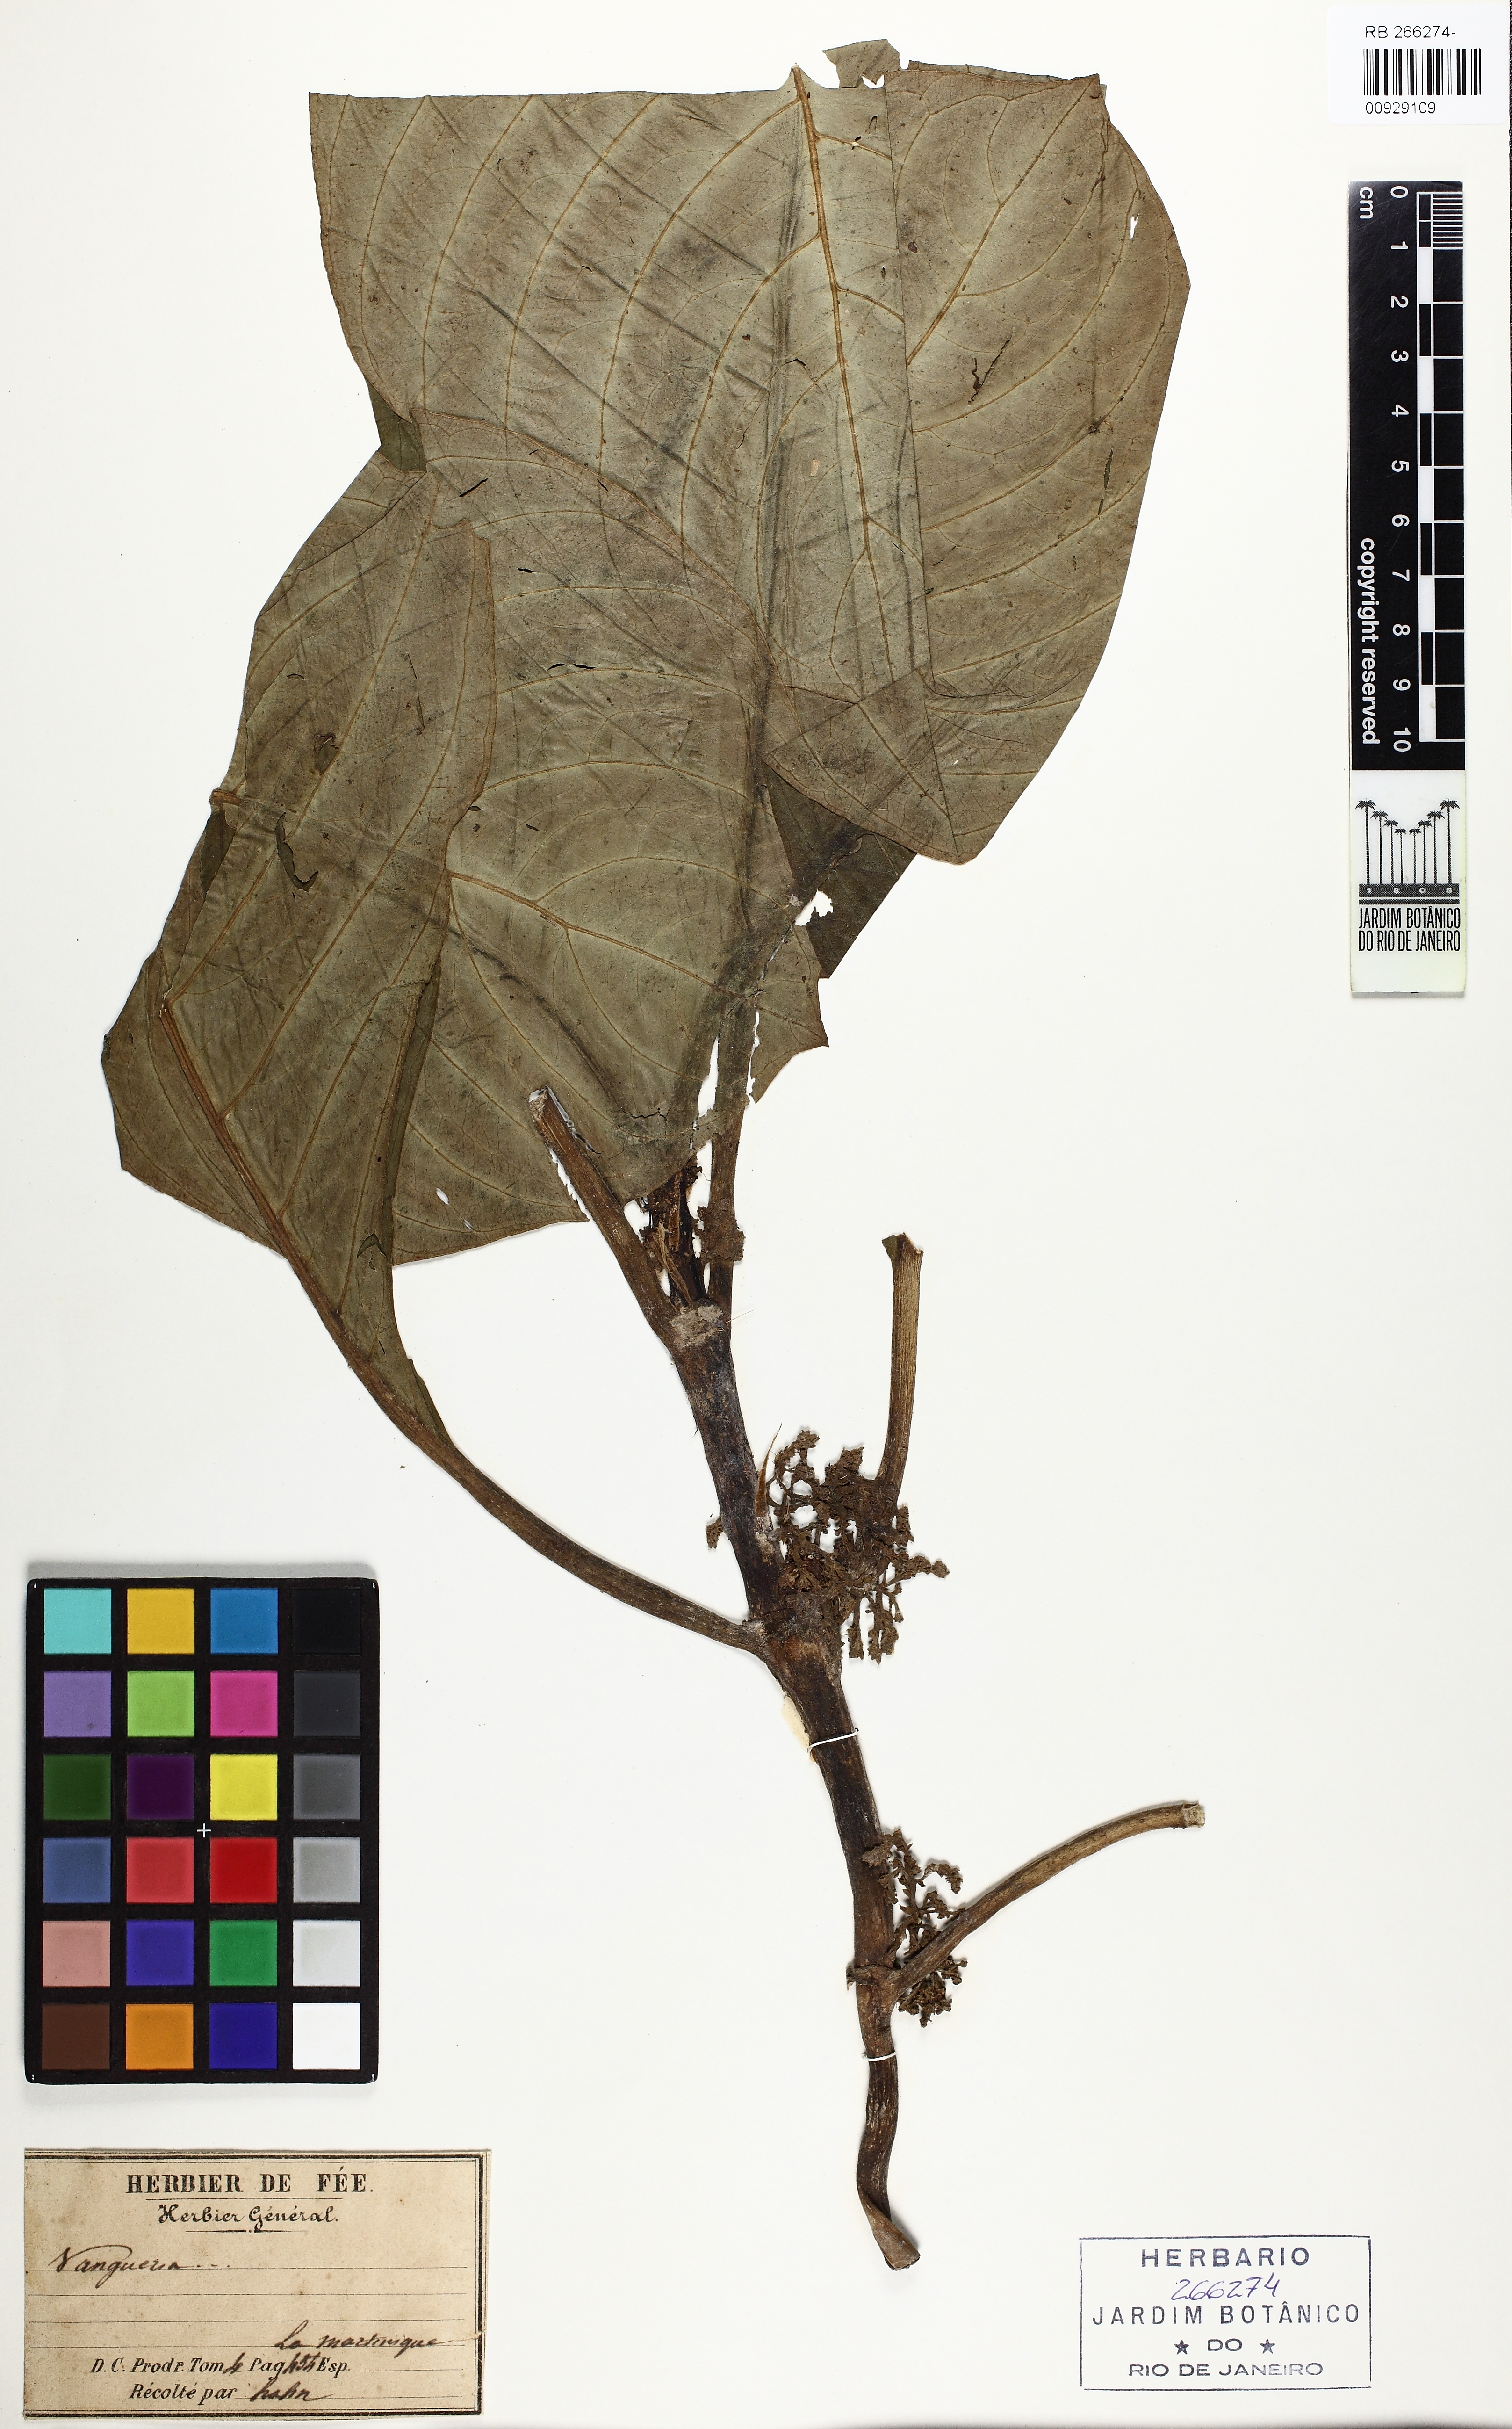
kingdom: Plantae
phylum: Tracheophyta
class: Magnoliopsida
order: Gentianales
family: Rubiaceae
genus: Vangueria
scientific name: Vangueria
